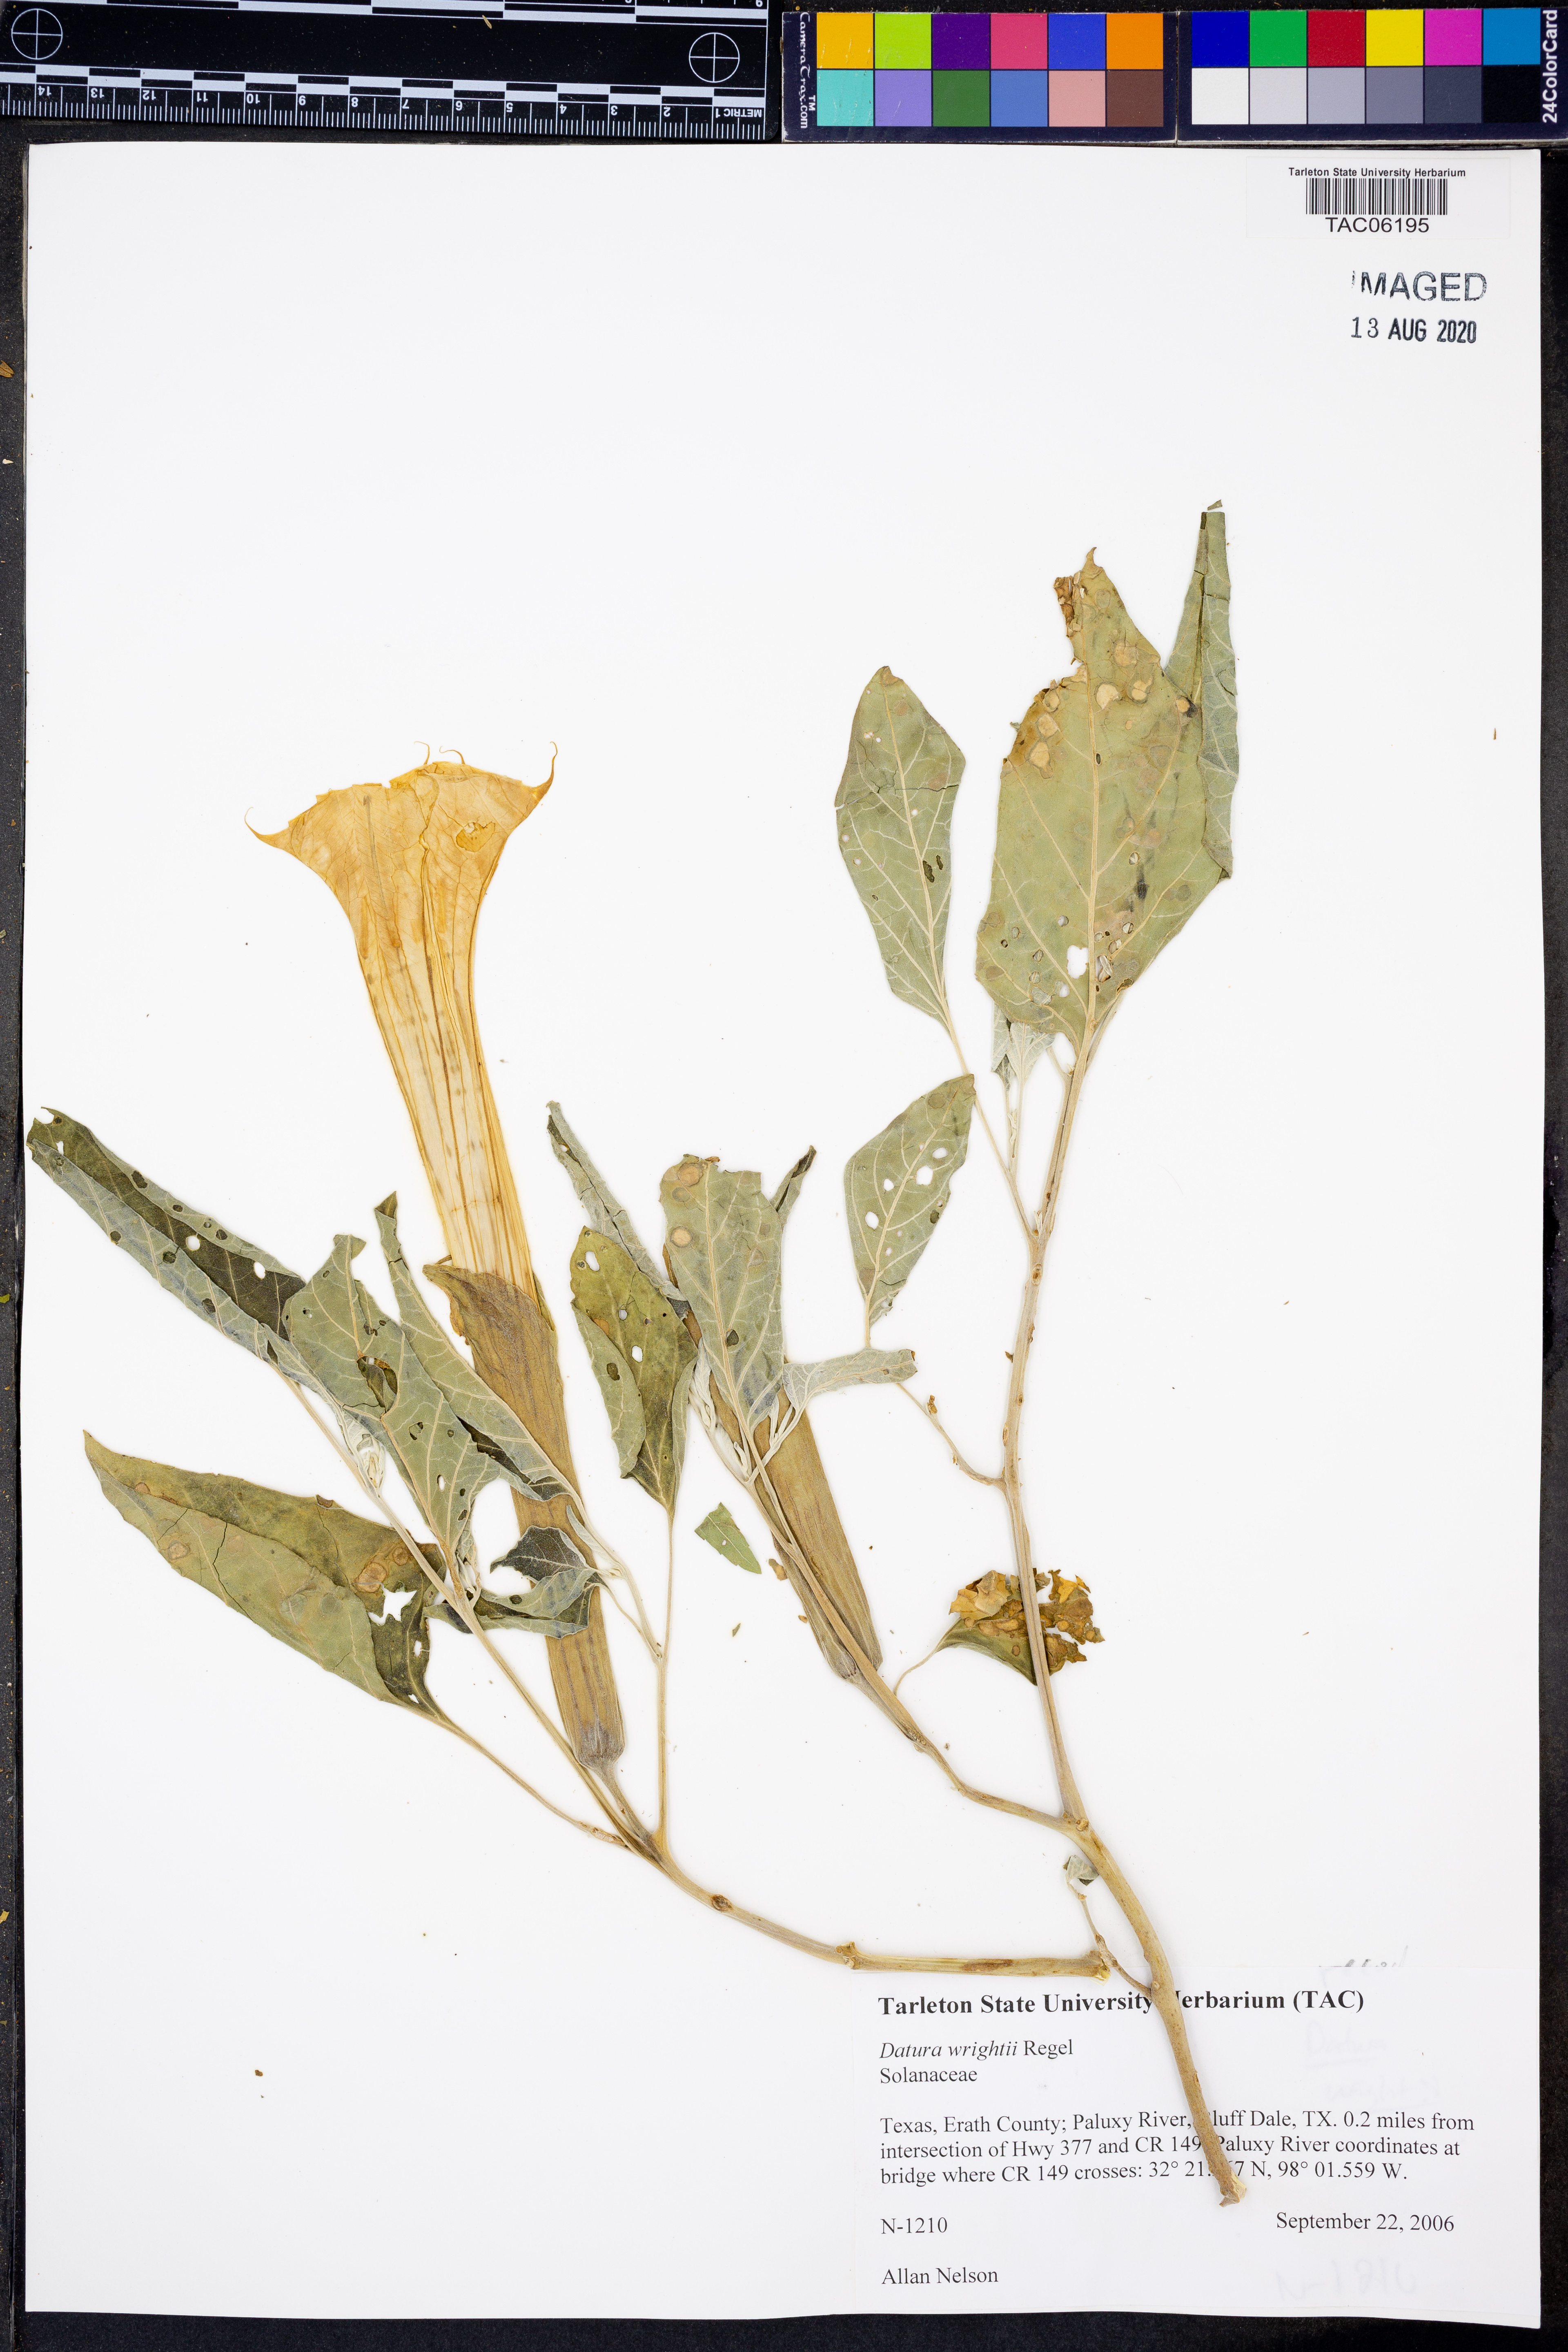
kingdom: Plantae
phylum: Tracheophyta
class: Magnoliopsida
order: Solanales
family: Solanaceae
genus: Datura
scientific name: Datura wrightii
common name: Sacred thorn-apple
